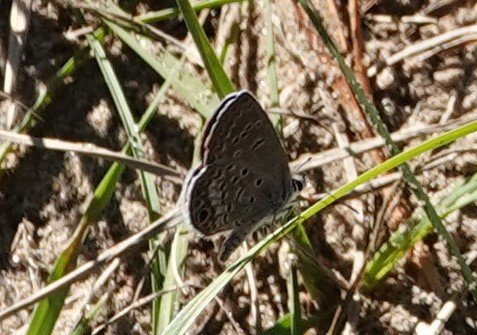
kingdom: Animalia
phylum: Arthropoda
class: Insecta
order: Lepidoptera
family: Lycaenidae
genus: Hemiargus
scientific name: Hemiargus ceraunus
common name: Ceraunus Blue
